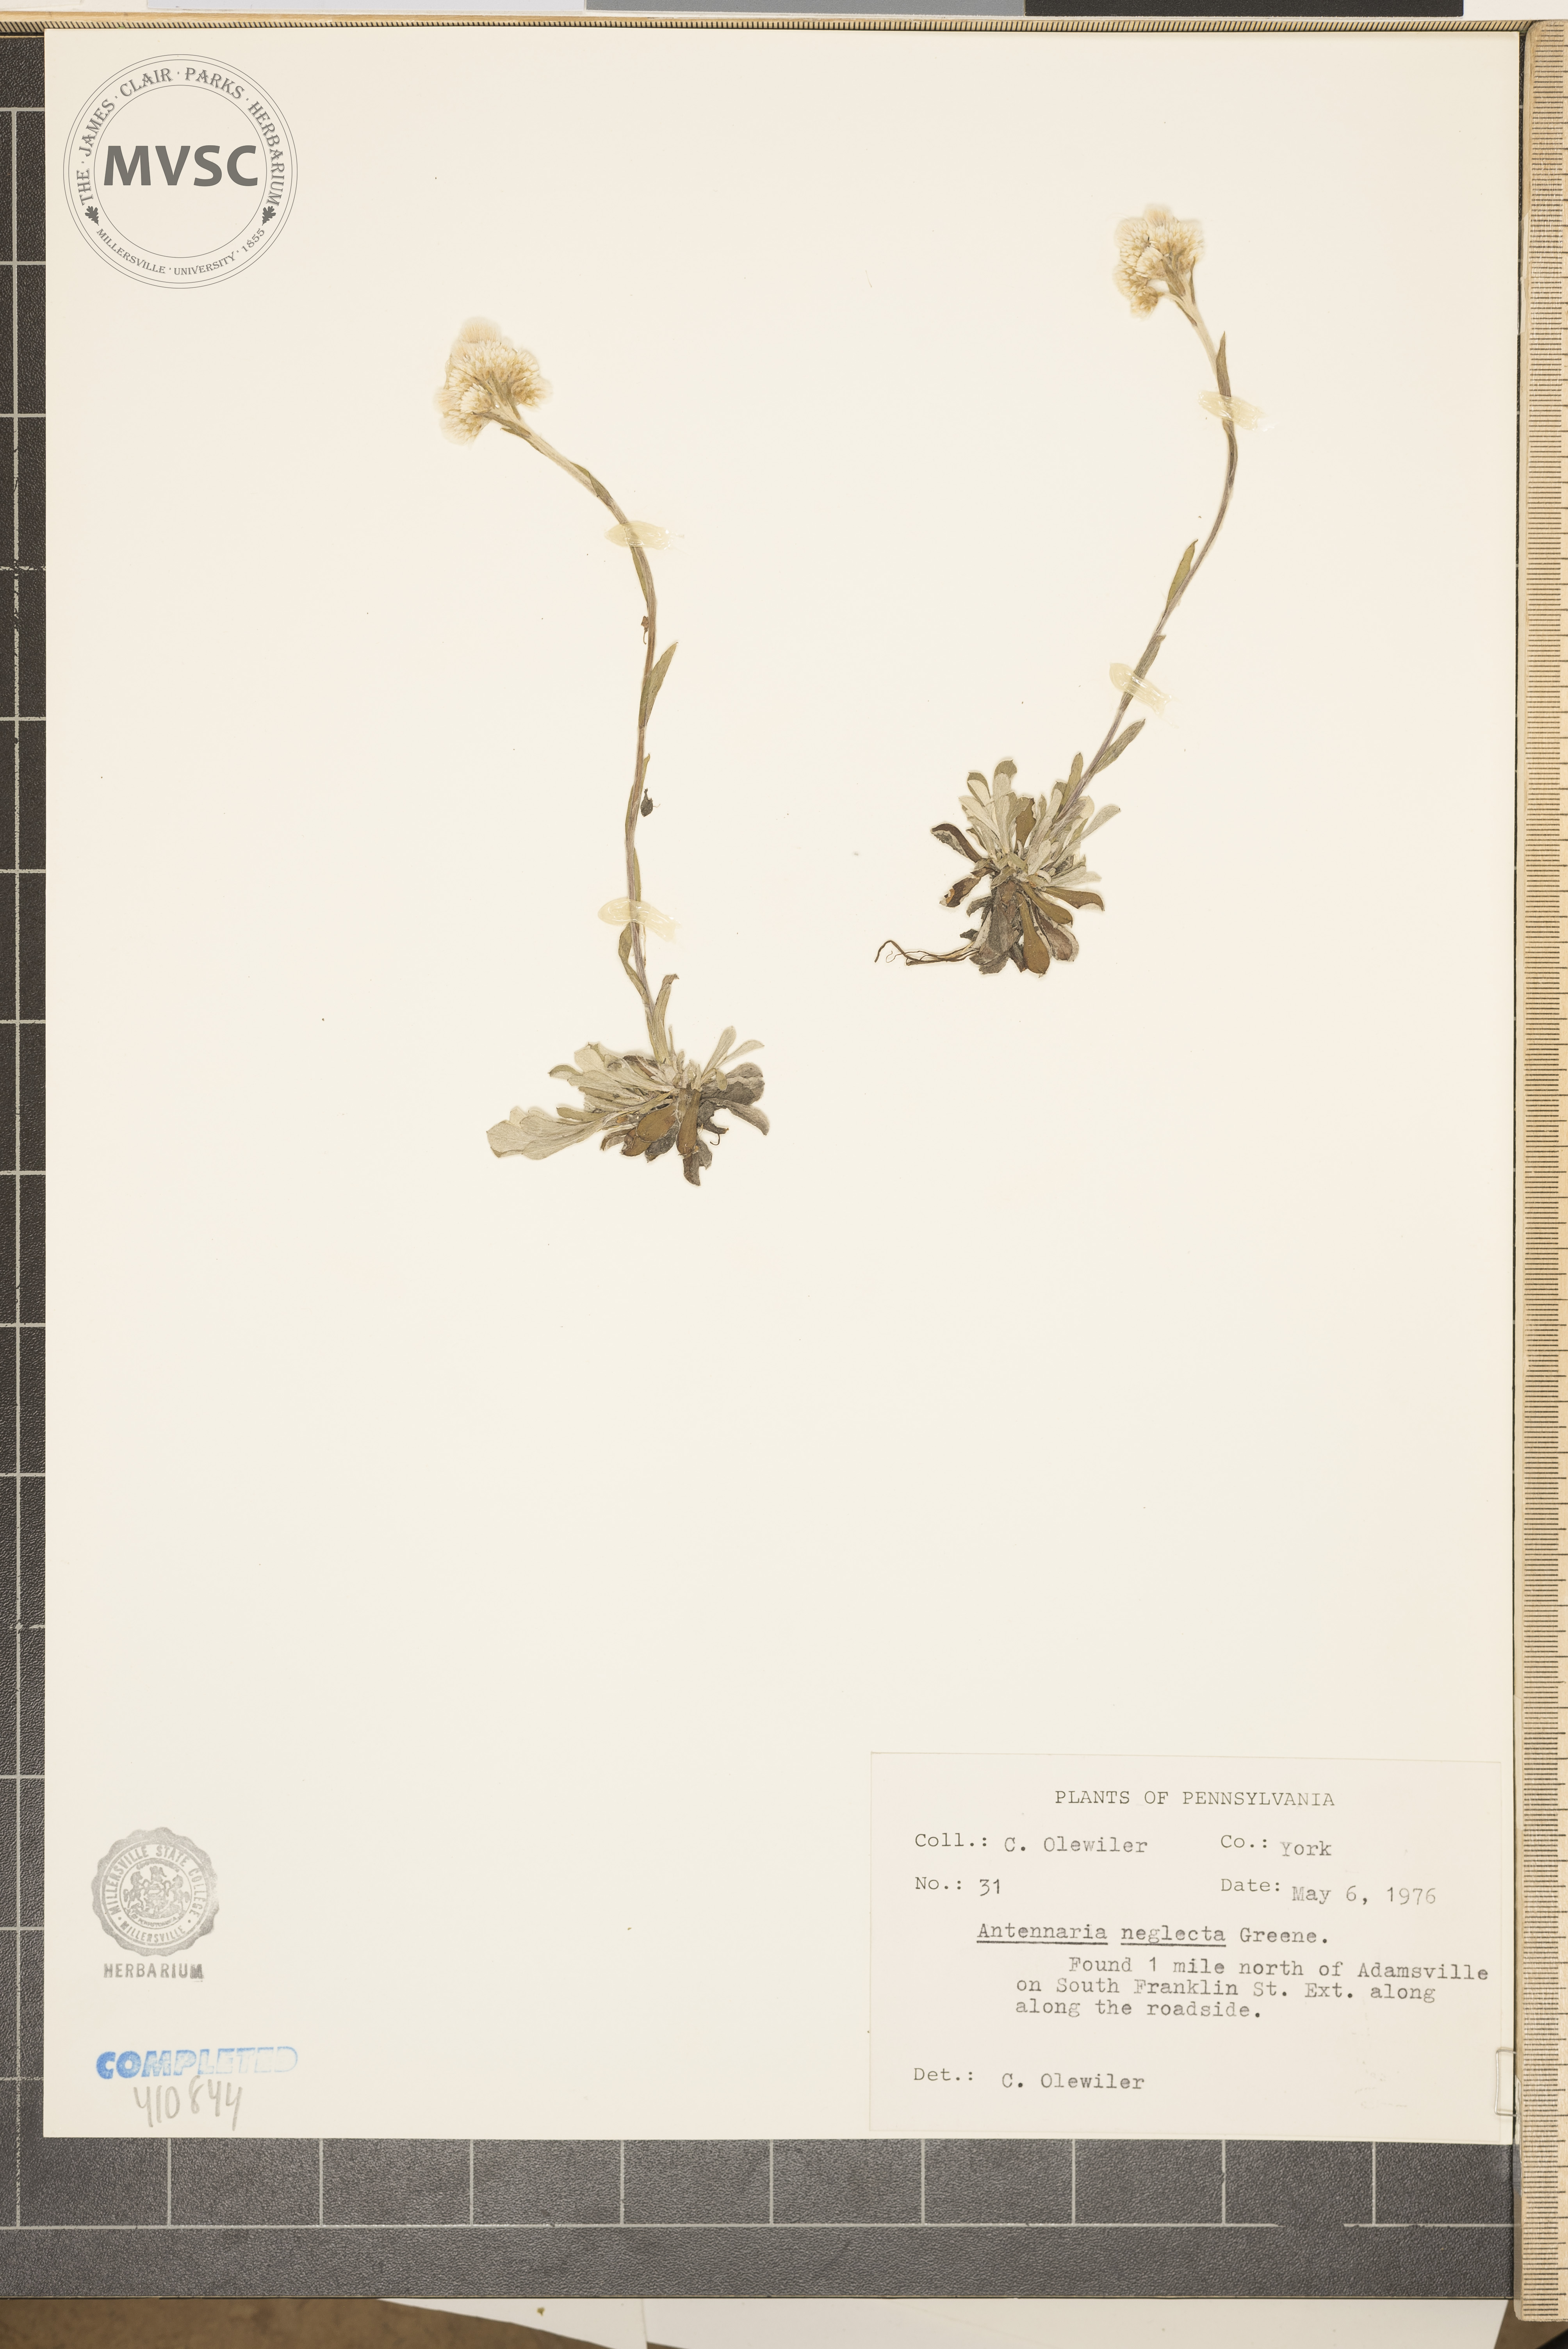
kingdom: Plantae
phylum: Tracheophyta
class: Magnoliopsida
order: Asterales
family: Asteraceae
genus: Antennaria
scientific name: Antennaria neglecta
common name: Field pussytoes
